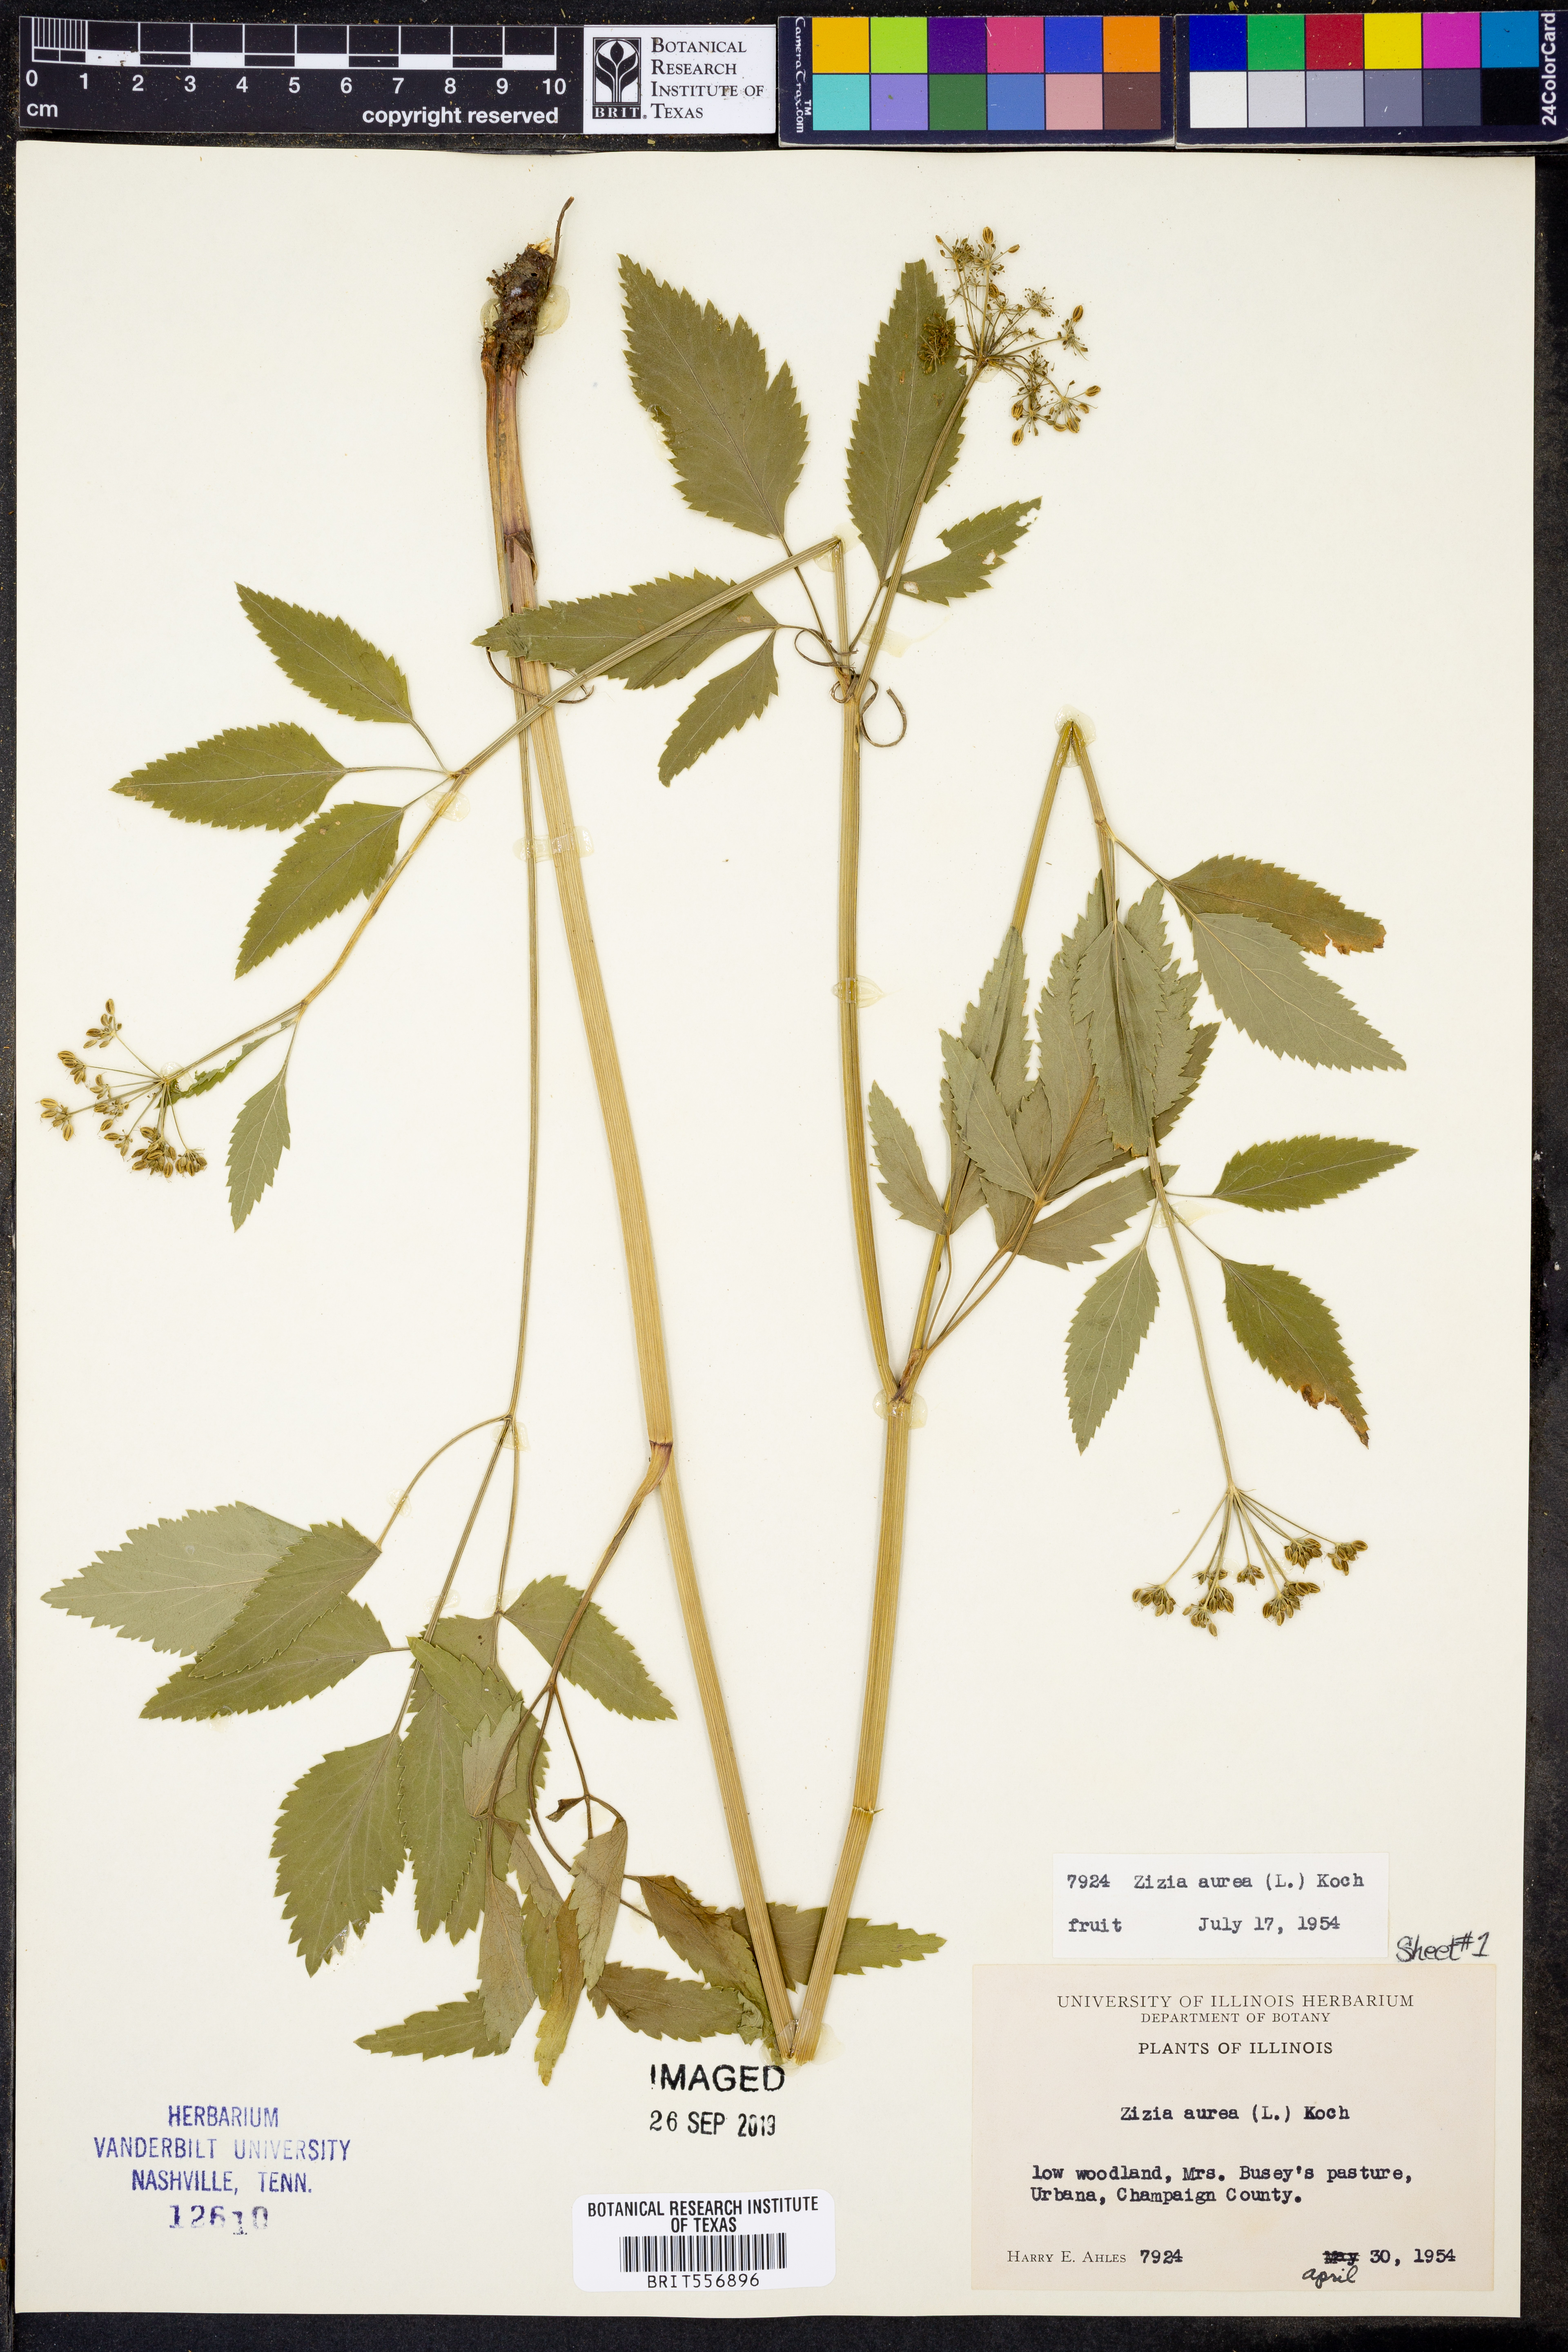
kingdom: Plantae
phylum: Tracheophyta
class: Magnoliopsida
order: Apiales
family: Apiaceae
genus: Zizia
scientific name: Zizia aurea
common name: Golden alexanders
